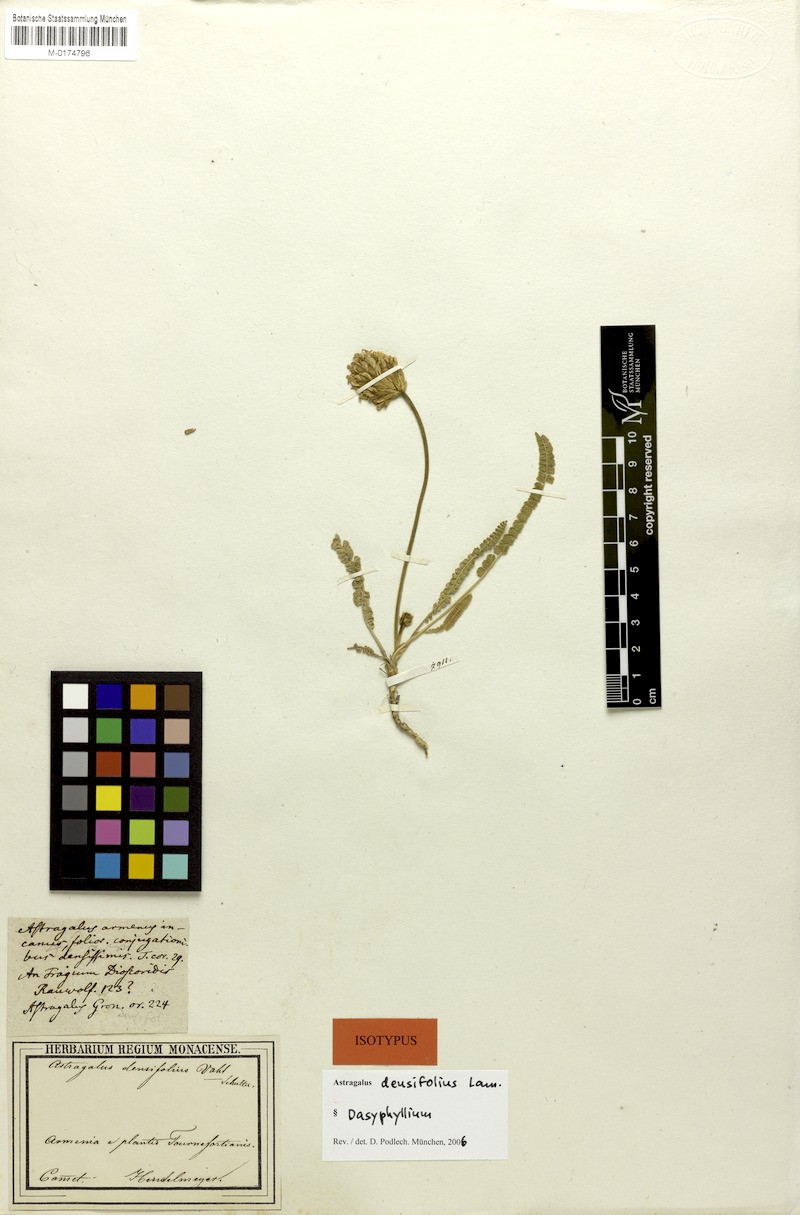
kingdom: Plantae
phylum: Tracheophyta
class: Magnoliopsida
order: Fabales
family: Fabaceae
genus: Astragalus
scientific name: Astragalus densifolius
